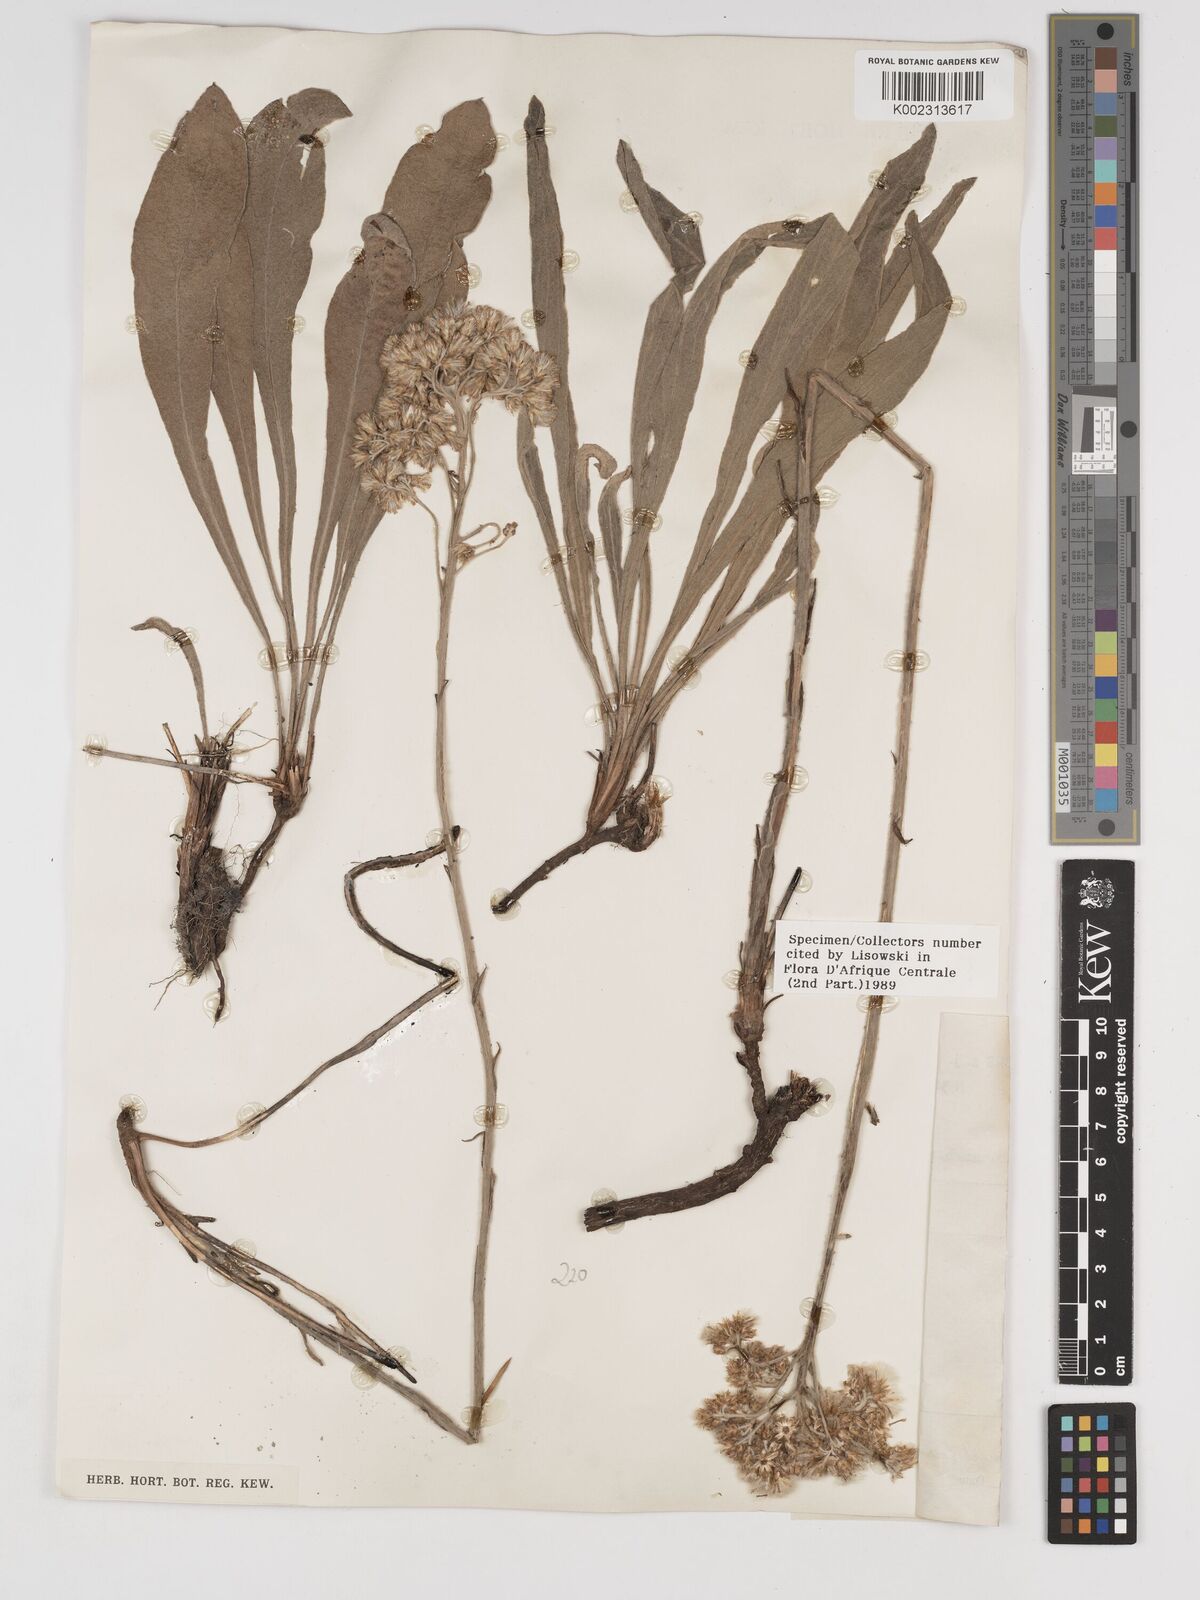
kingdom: Plantae
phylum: Tracheophyta
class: Magnoliopsida
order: Asterales
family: Asteraceae
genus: Helichrysum
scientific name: Helichrysum congolanum
